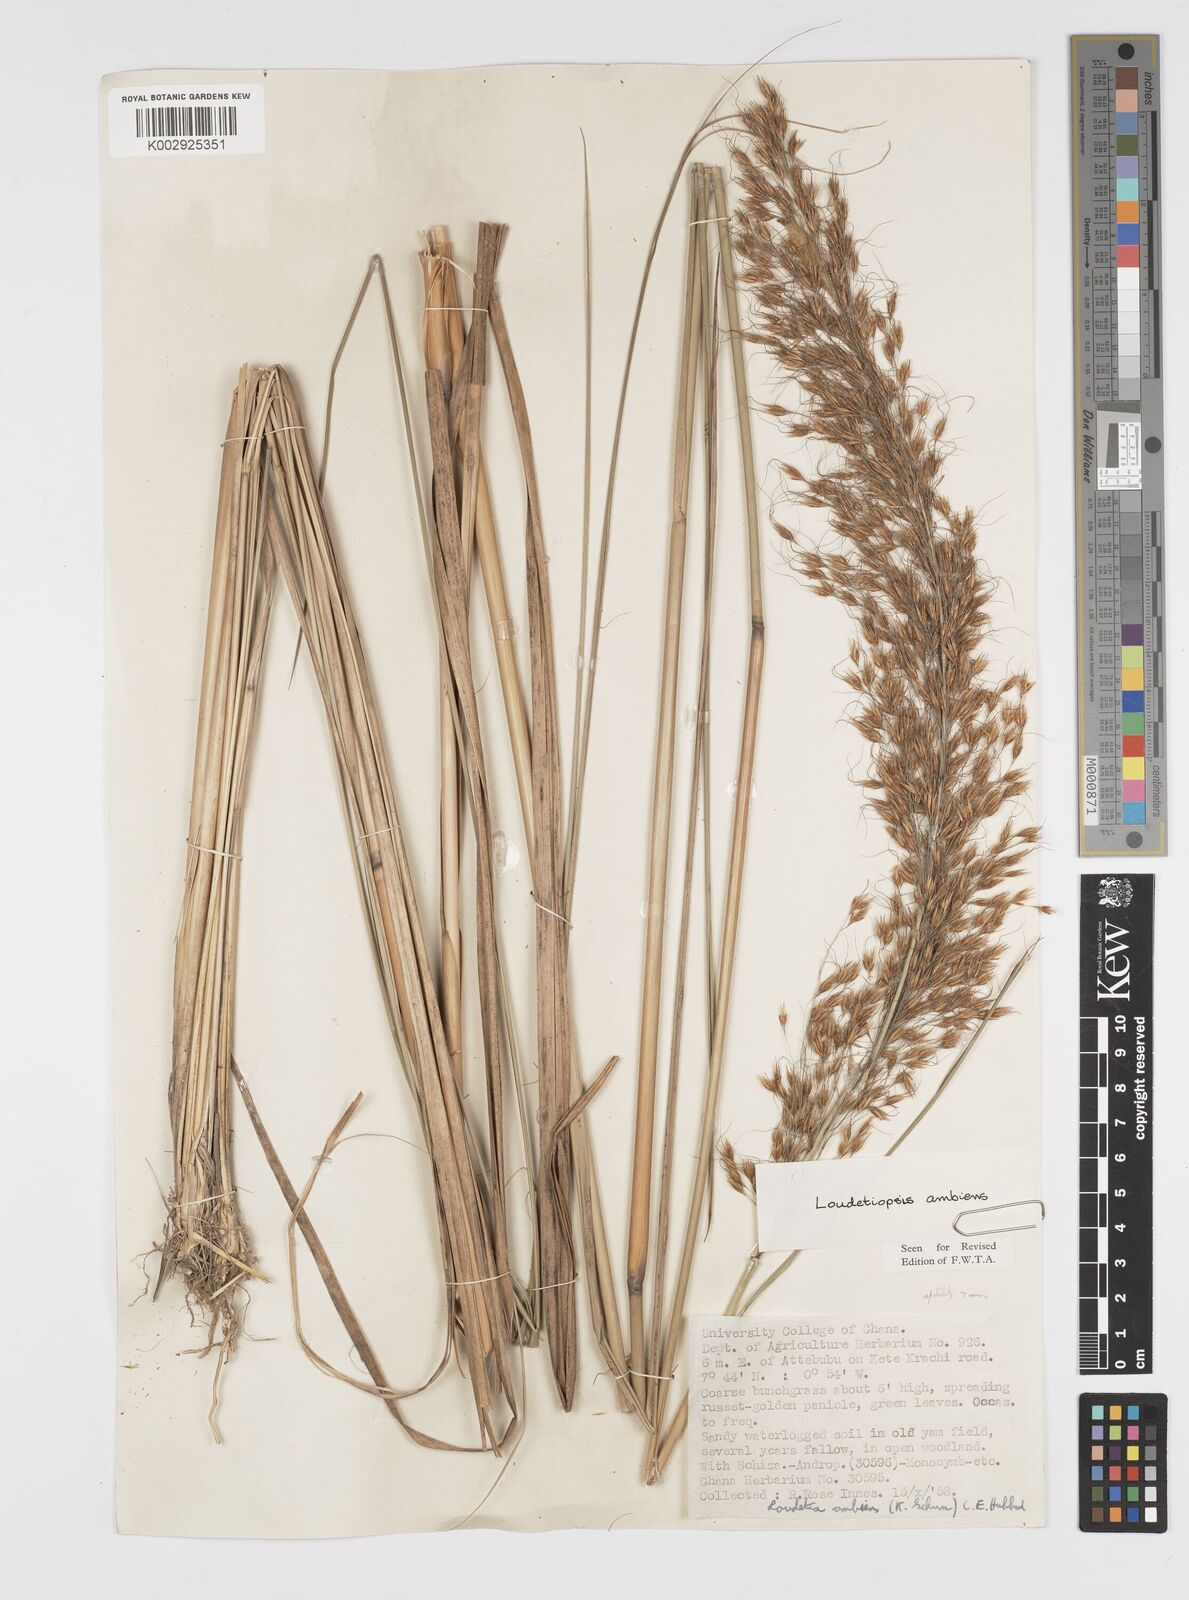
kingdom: Plantae
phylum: Tracheophyta
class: Liliopsida
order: Poales
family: Poaceae
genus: Loudetiopsis
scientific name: Loudetiopsis ambiens
